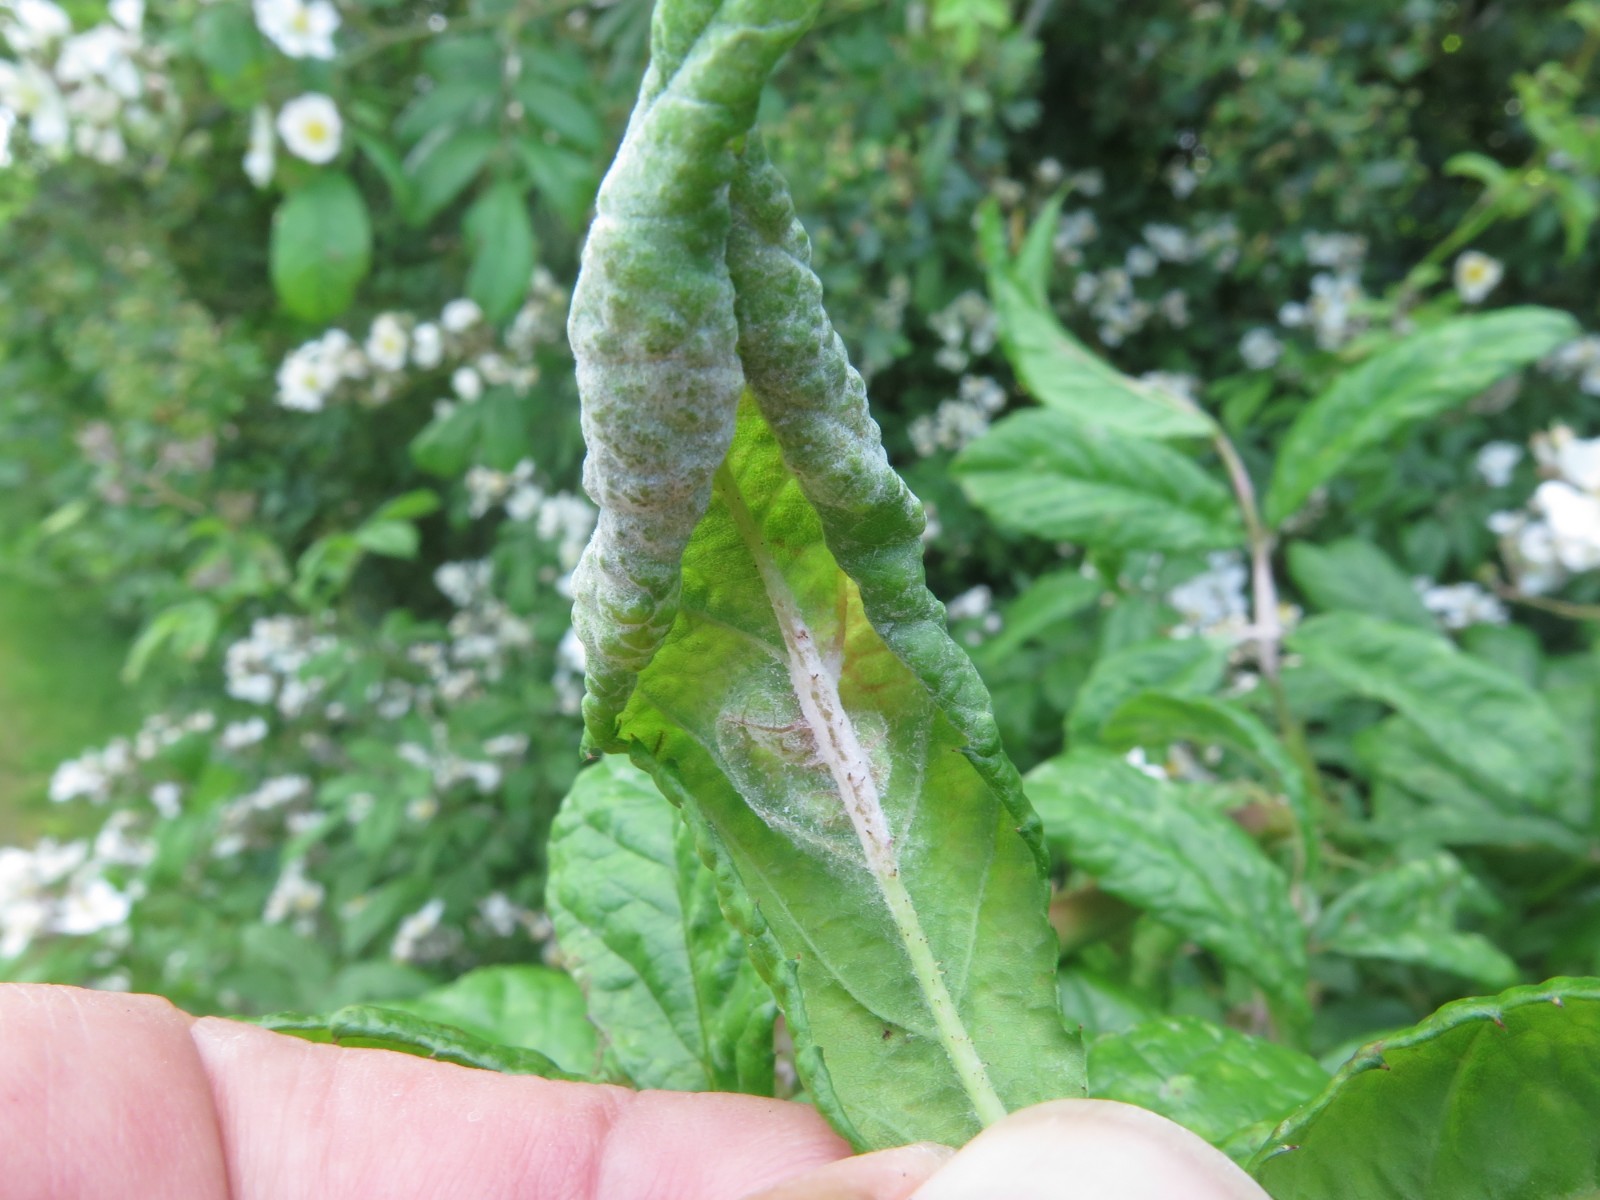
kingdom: Fungi
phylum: Ascomycota
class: Leotiomycetes
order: Helotiales
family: Erysiphaceae
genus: Podosphaera
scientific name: Podosphaera pannosa
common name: Rose mildew
